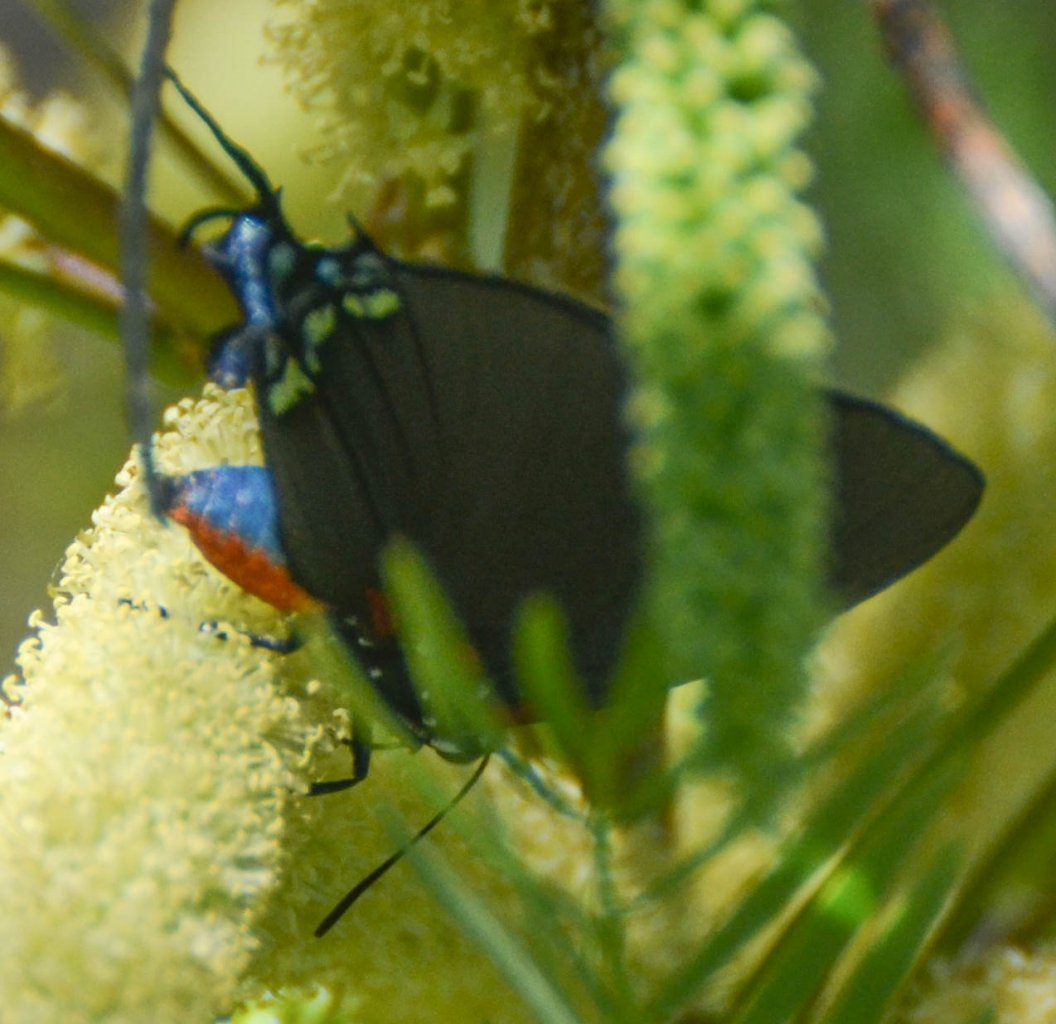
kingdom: Animalia
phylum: Arthropoda
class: Insecta
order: Lepidoptera
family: Lycaenidae
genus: Atlides
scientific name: Atlides halesus
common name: Great Purple Hairstreak
